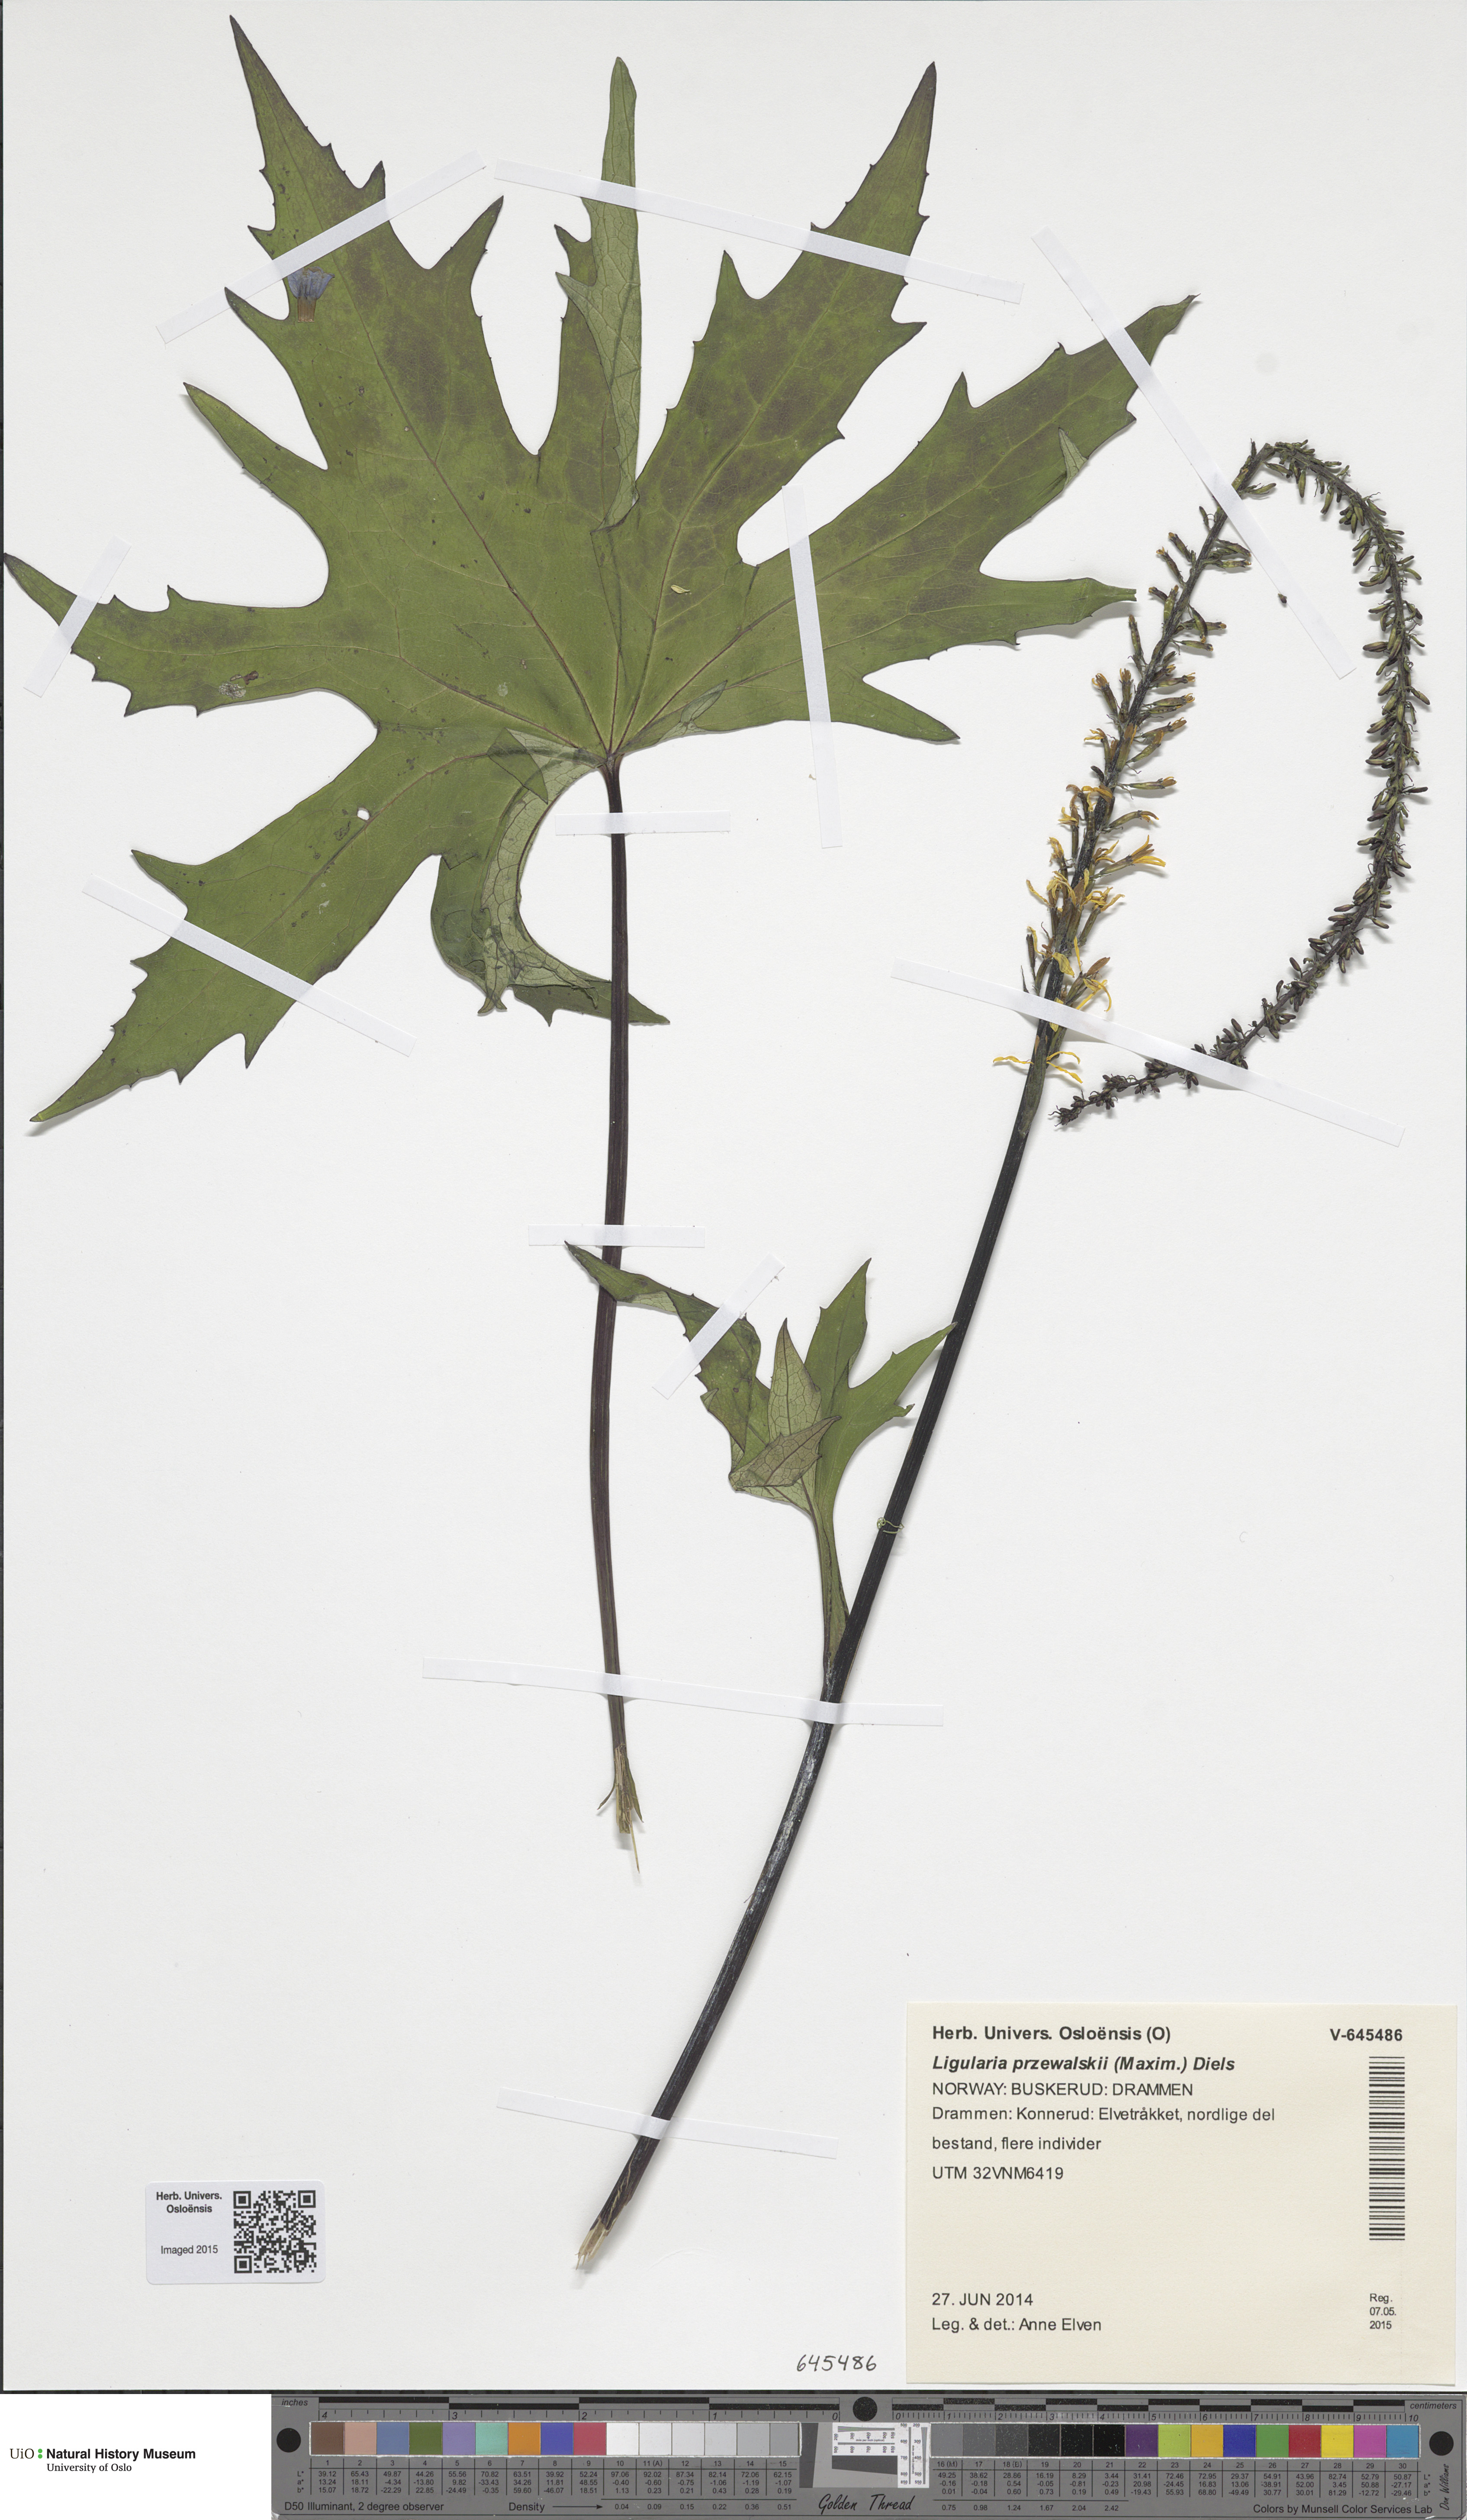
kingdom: Plantae
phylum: Tracheophyta
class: Magnoliopsida
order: Asterales
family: Asteraceae
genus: Ligularia
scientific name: Ligularia przewalskii
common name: Przewalski's leopardplant
